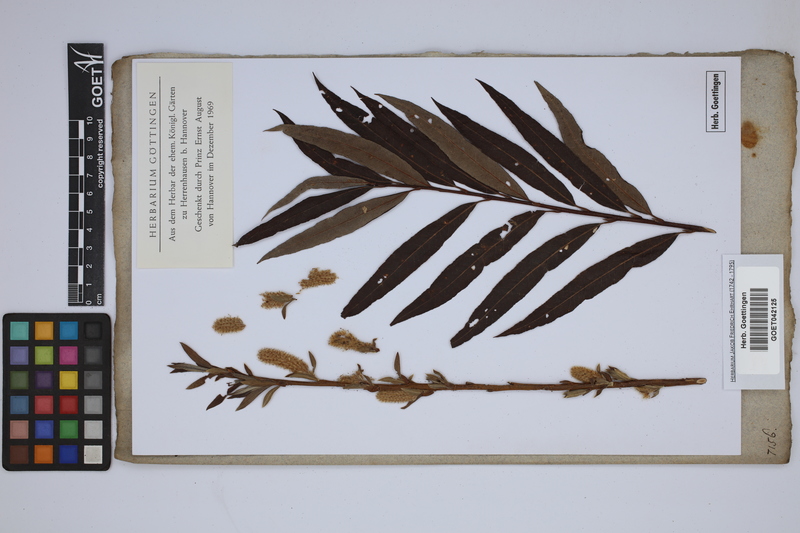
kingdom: Plantae
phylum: Tracheophyta
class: Magnoliopsida
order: Malpighiales
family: Salicaceae
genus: Salix
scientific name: Salix
